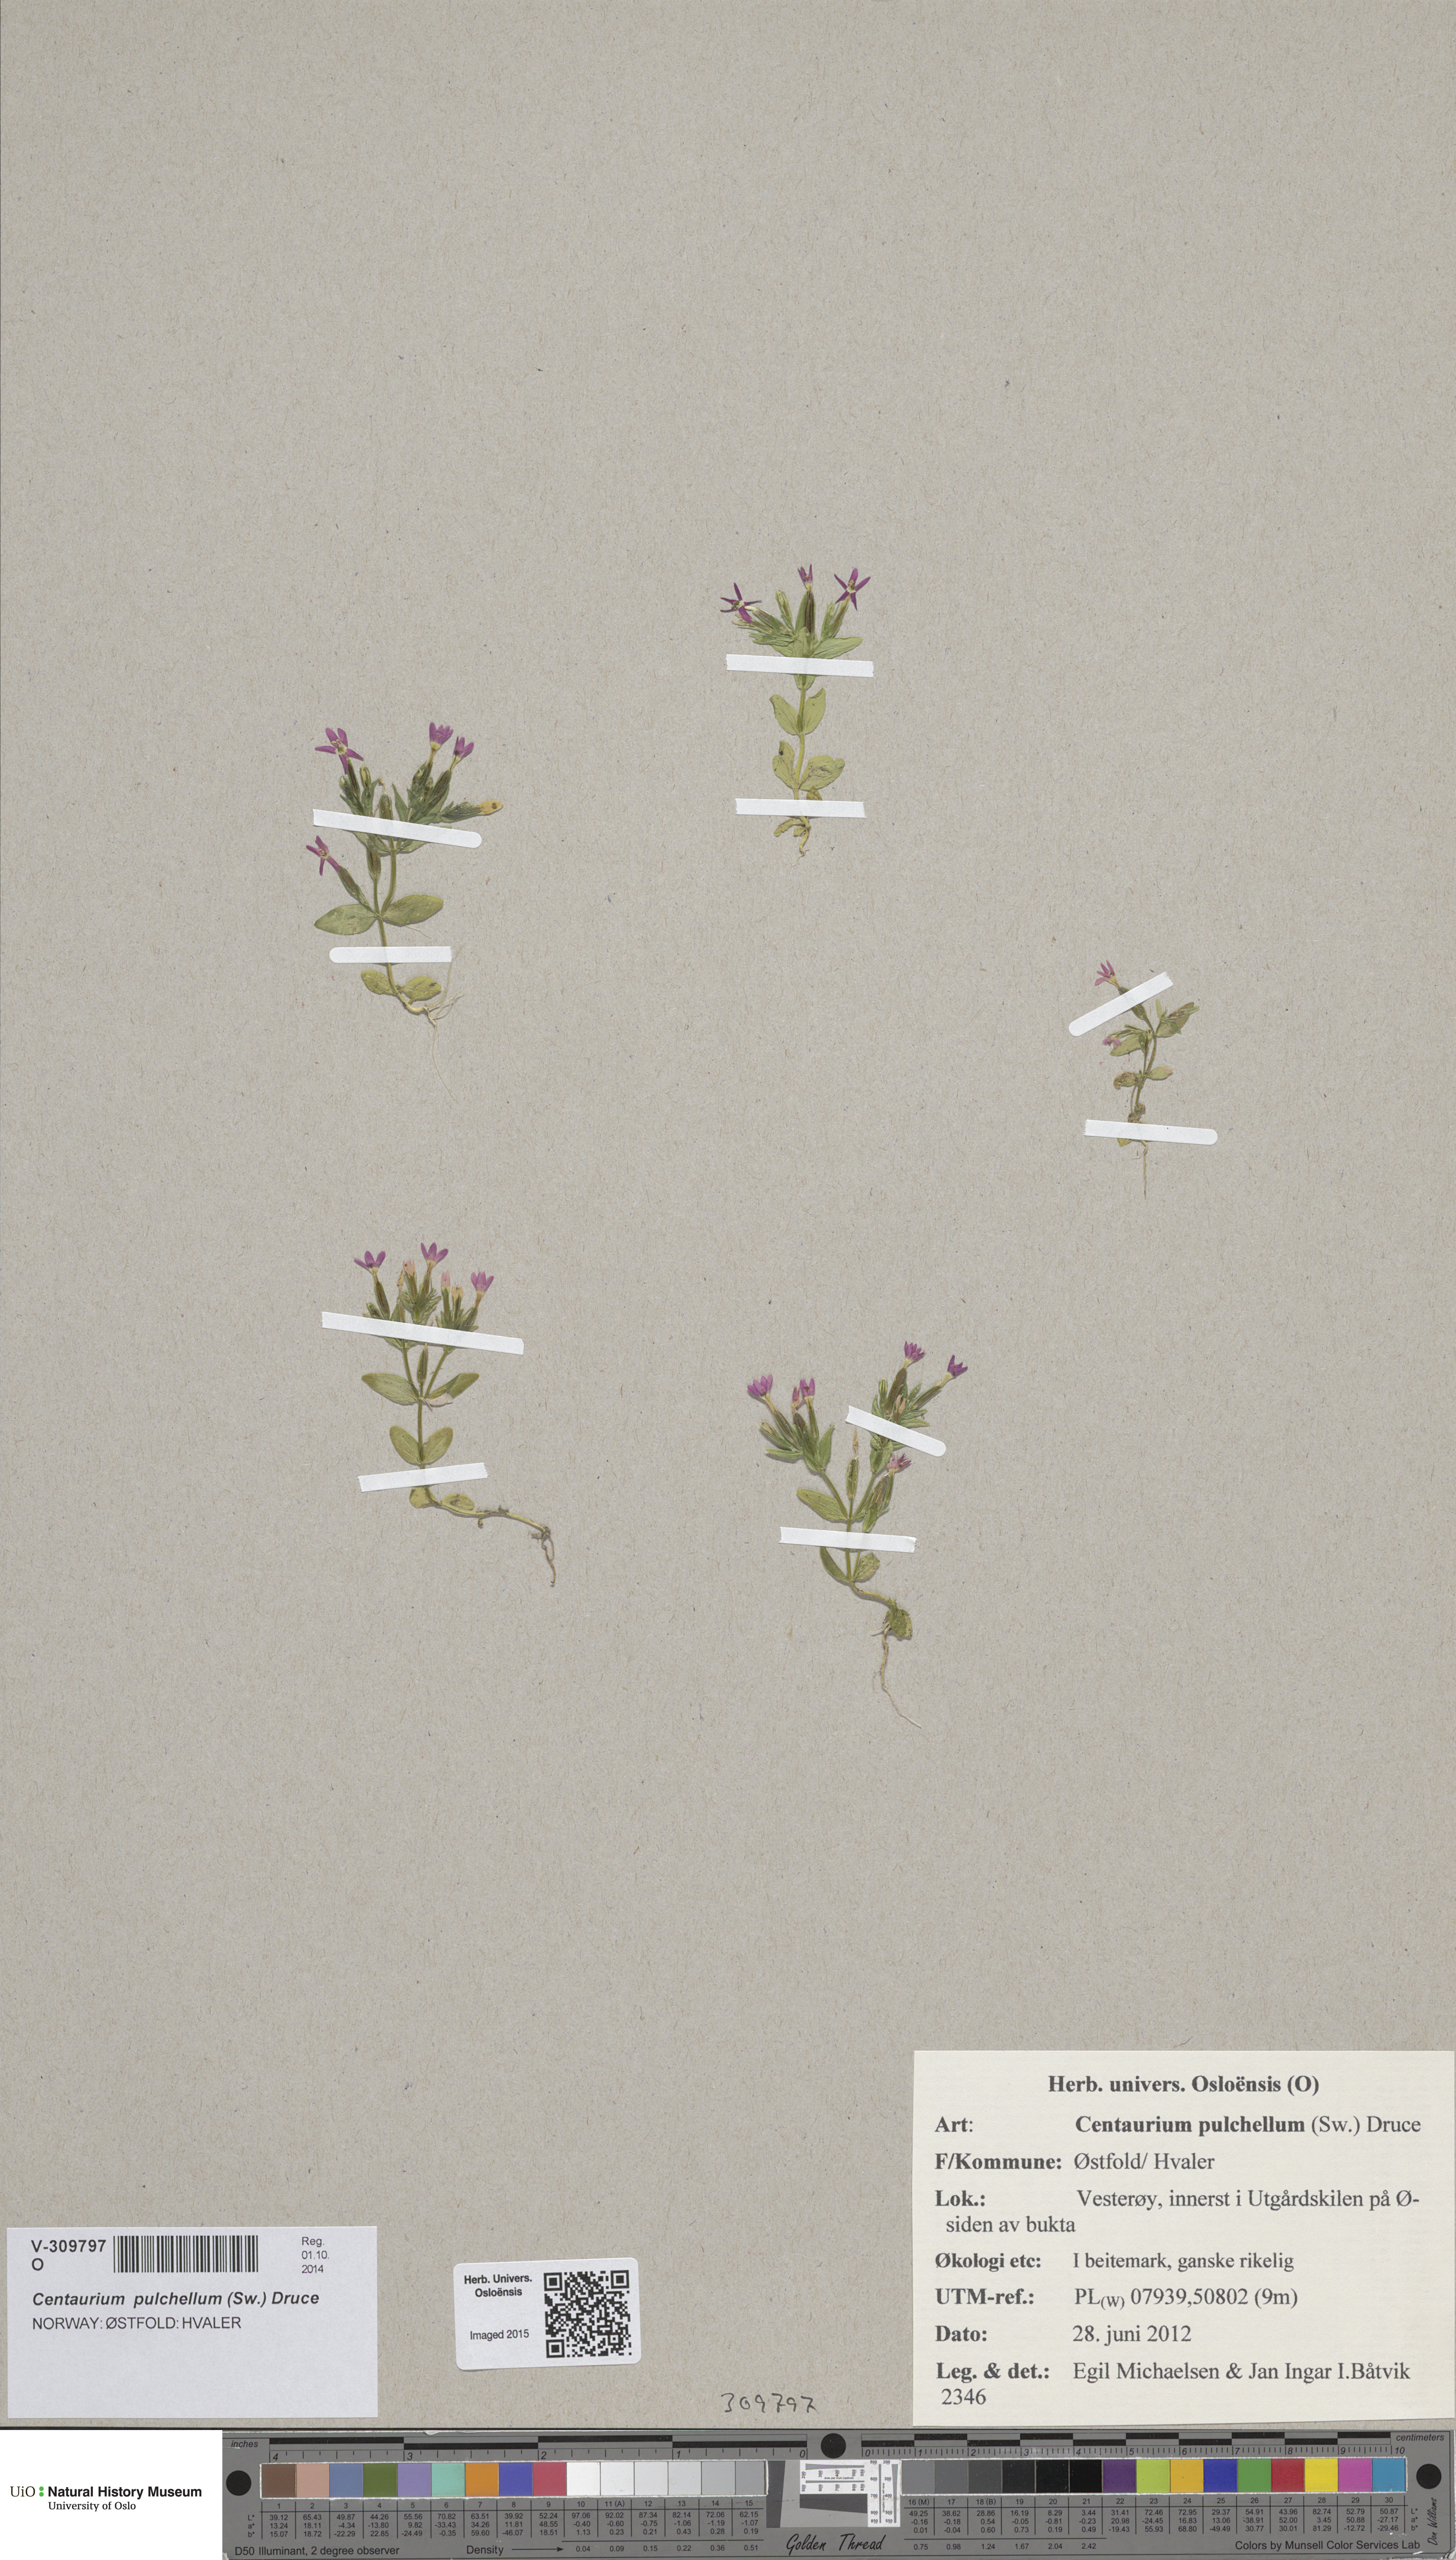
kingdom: Plantae
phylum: Tracheophyta
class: Magnoliopsida
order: Gentianales
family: Gentianaceae
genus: Centaurium
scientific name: Centaurium pulchellum
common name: Lesser centaury
